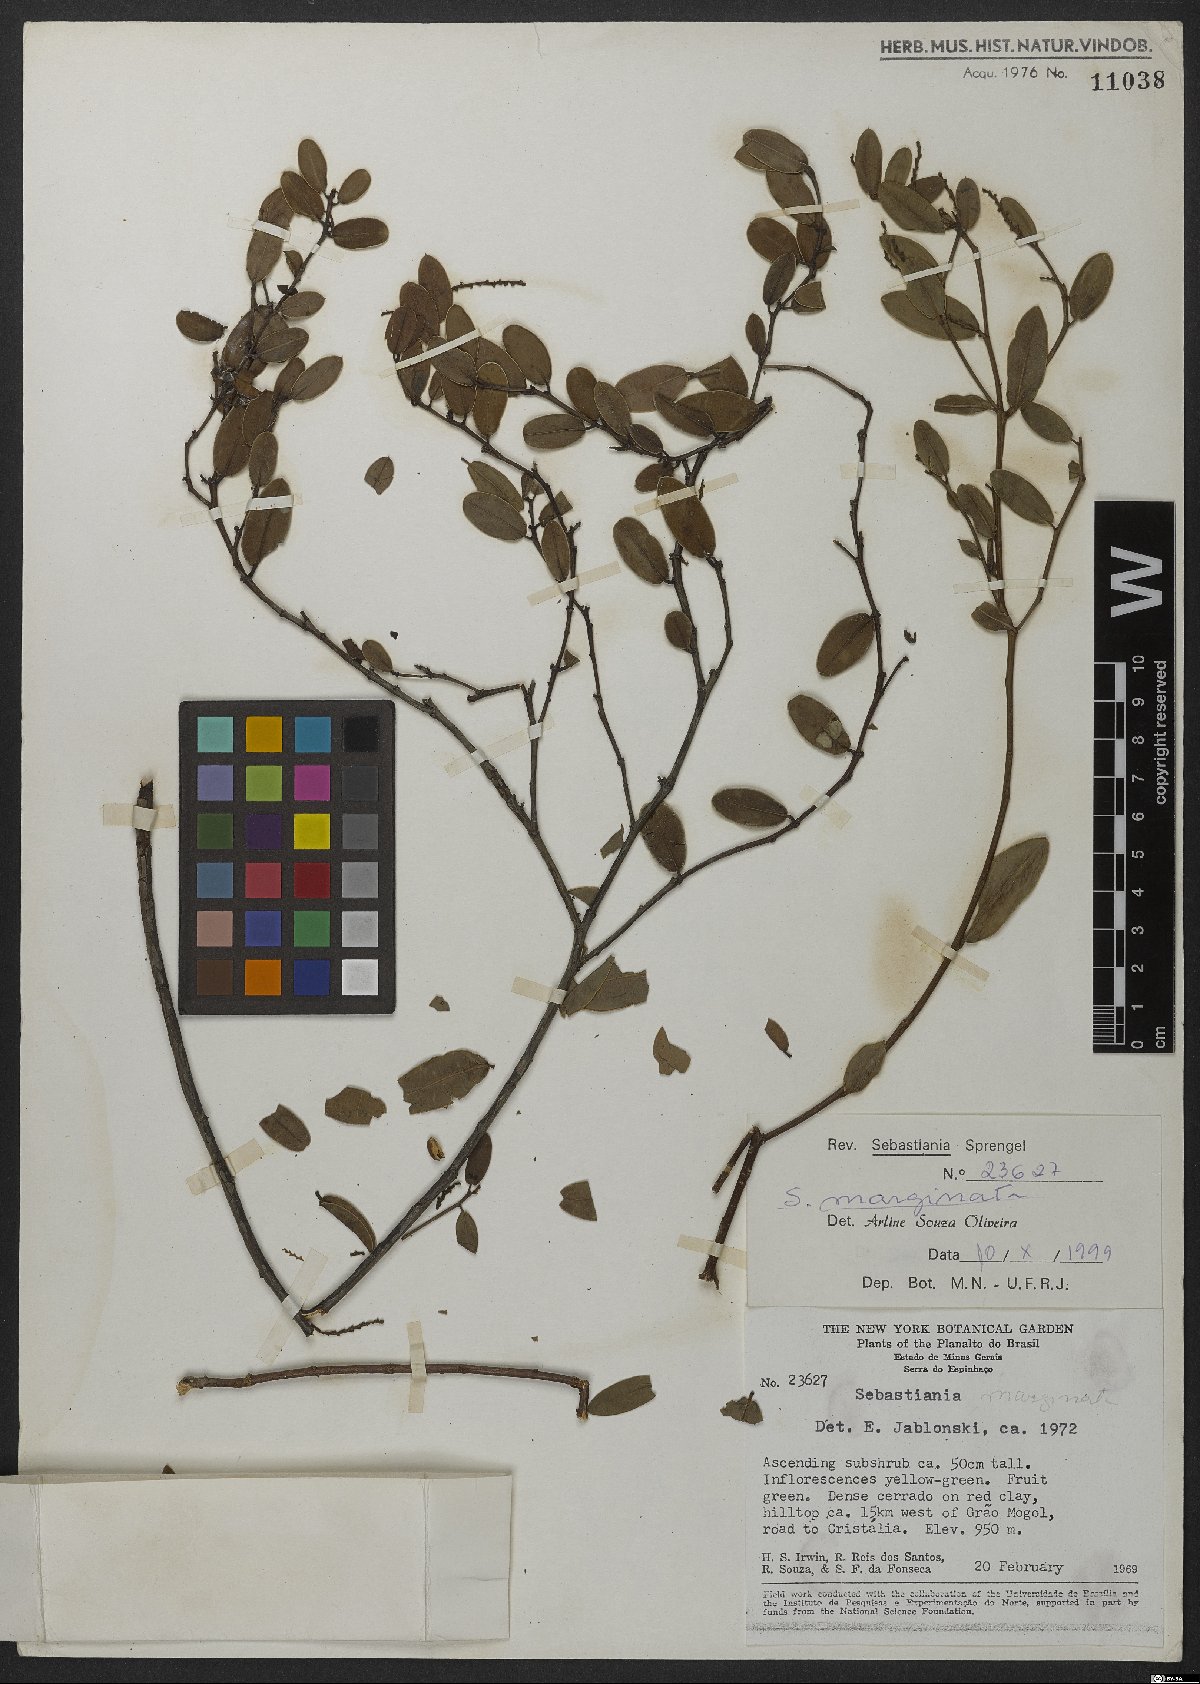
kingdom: Plantae
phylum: Tracheophyta
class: Magnoliopsida
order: Malpighiales
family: Euphorbiaceae
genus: Microstachys
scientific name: Microstachys marginata
